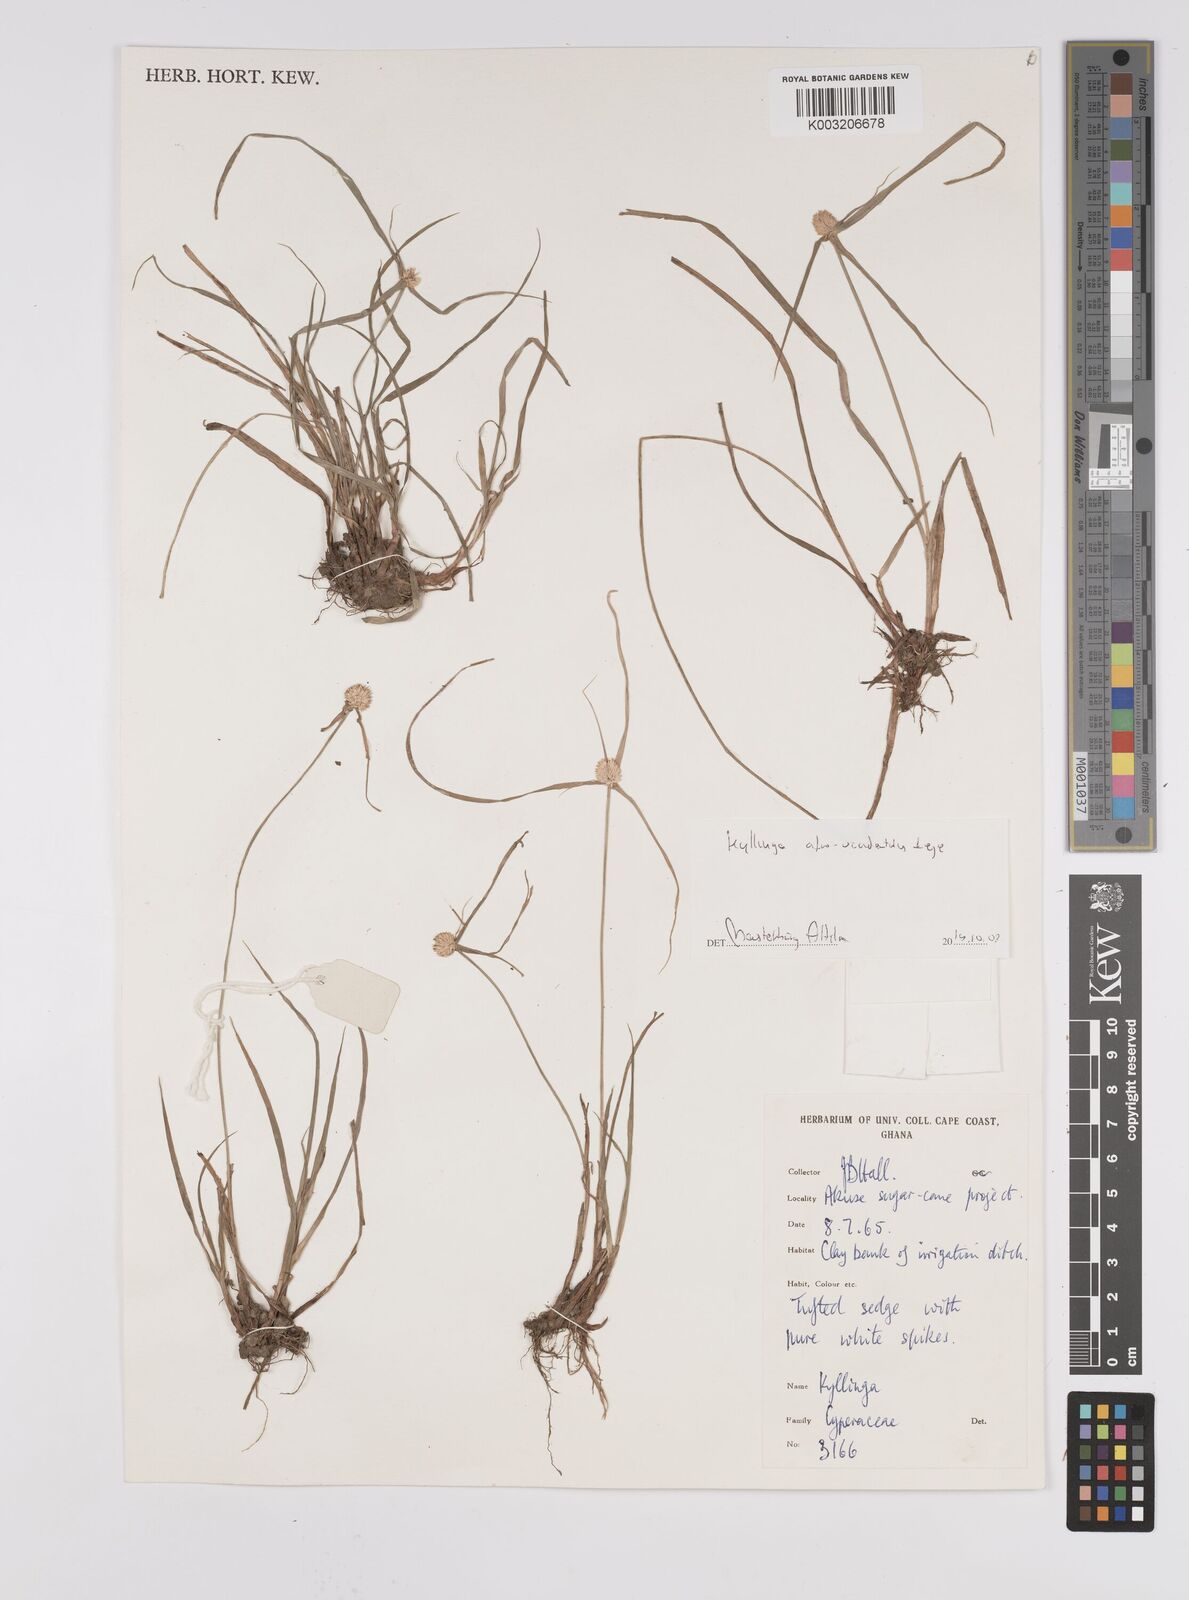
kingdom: Plantae
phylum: Tracheophyta
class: Liliopsida
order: Poales
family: Cyperaceae
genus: Cyperus
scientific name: Cyperus afro-occidentalis
